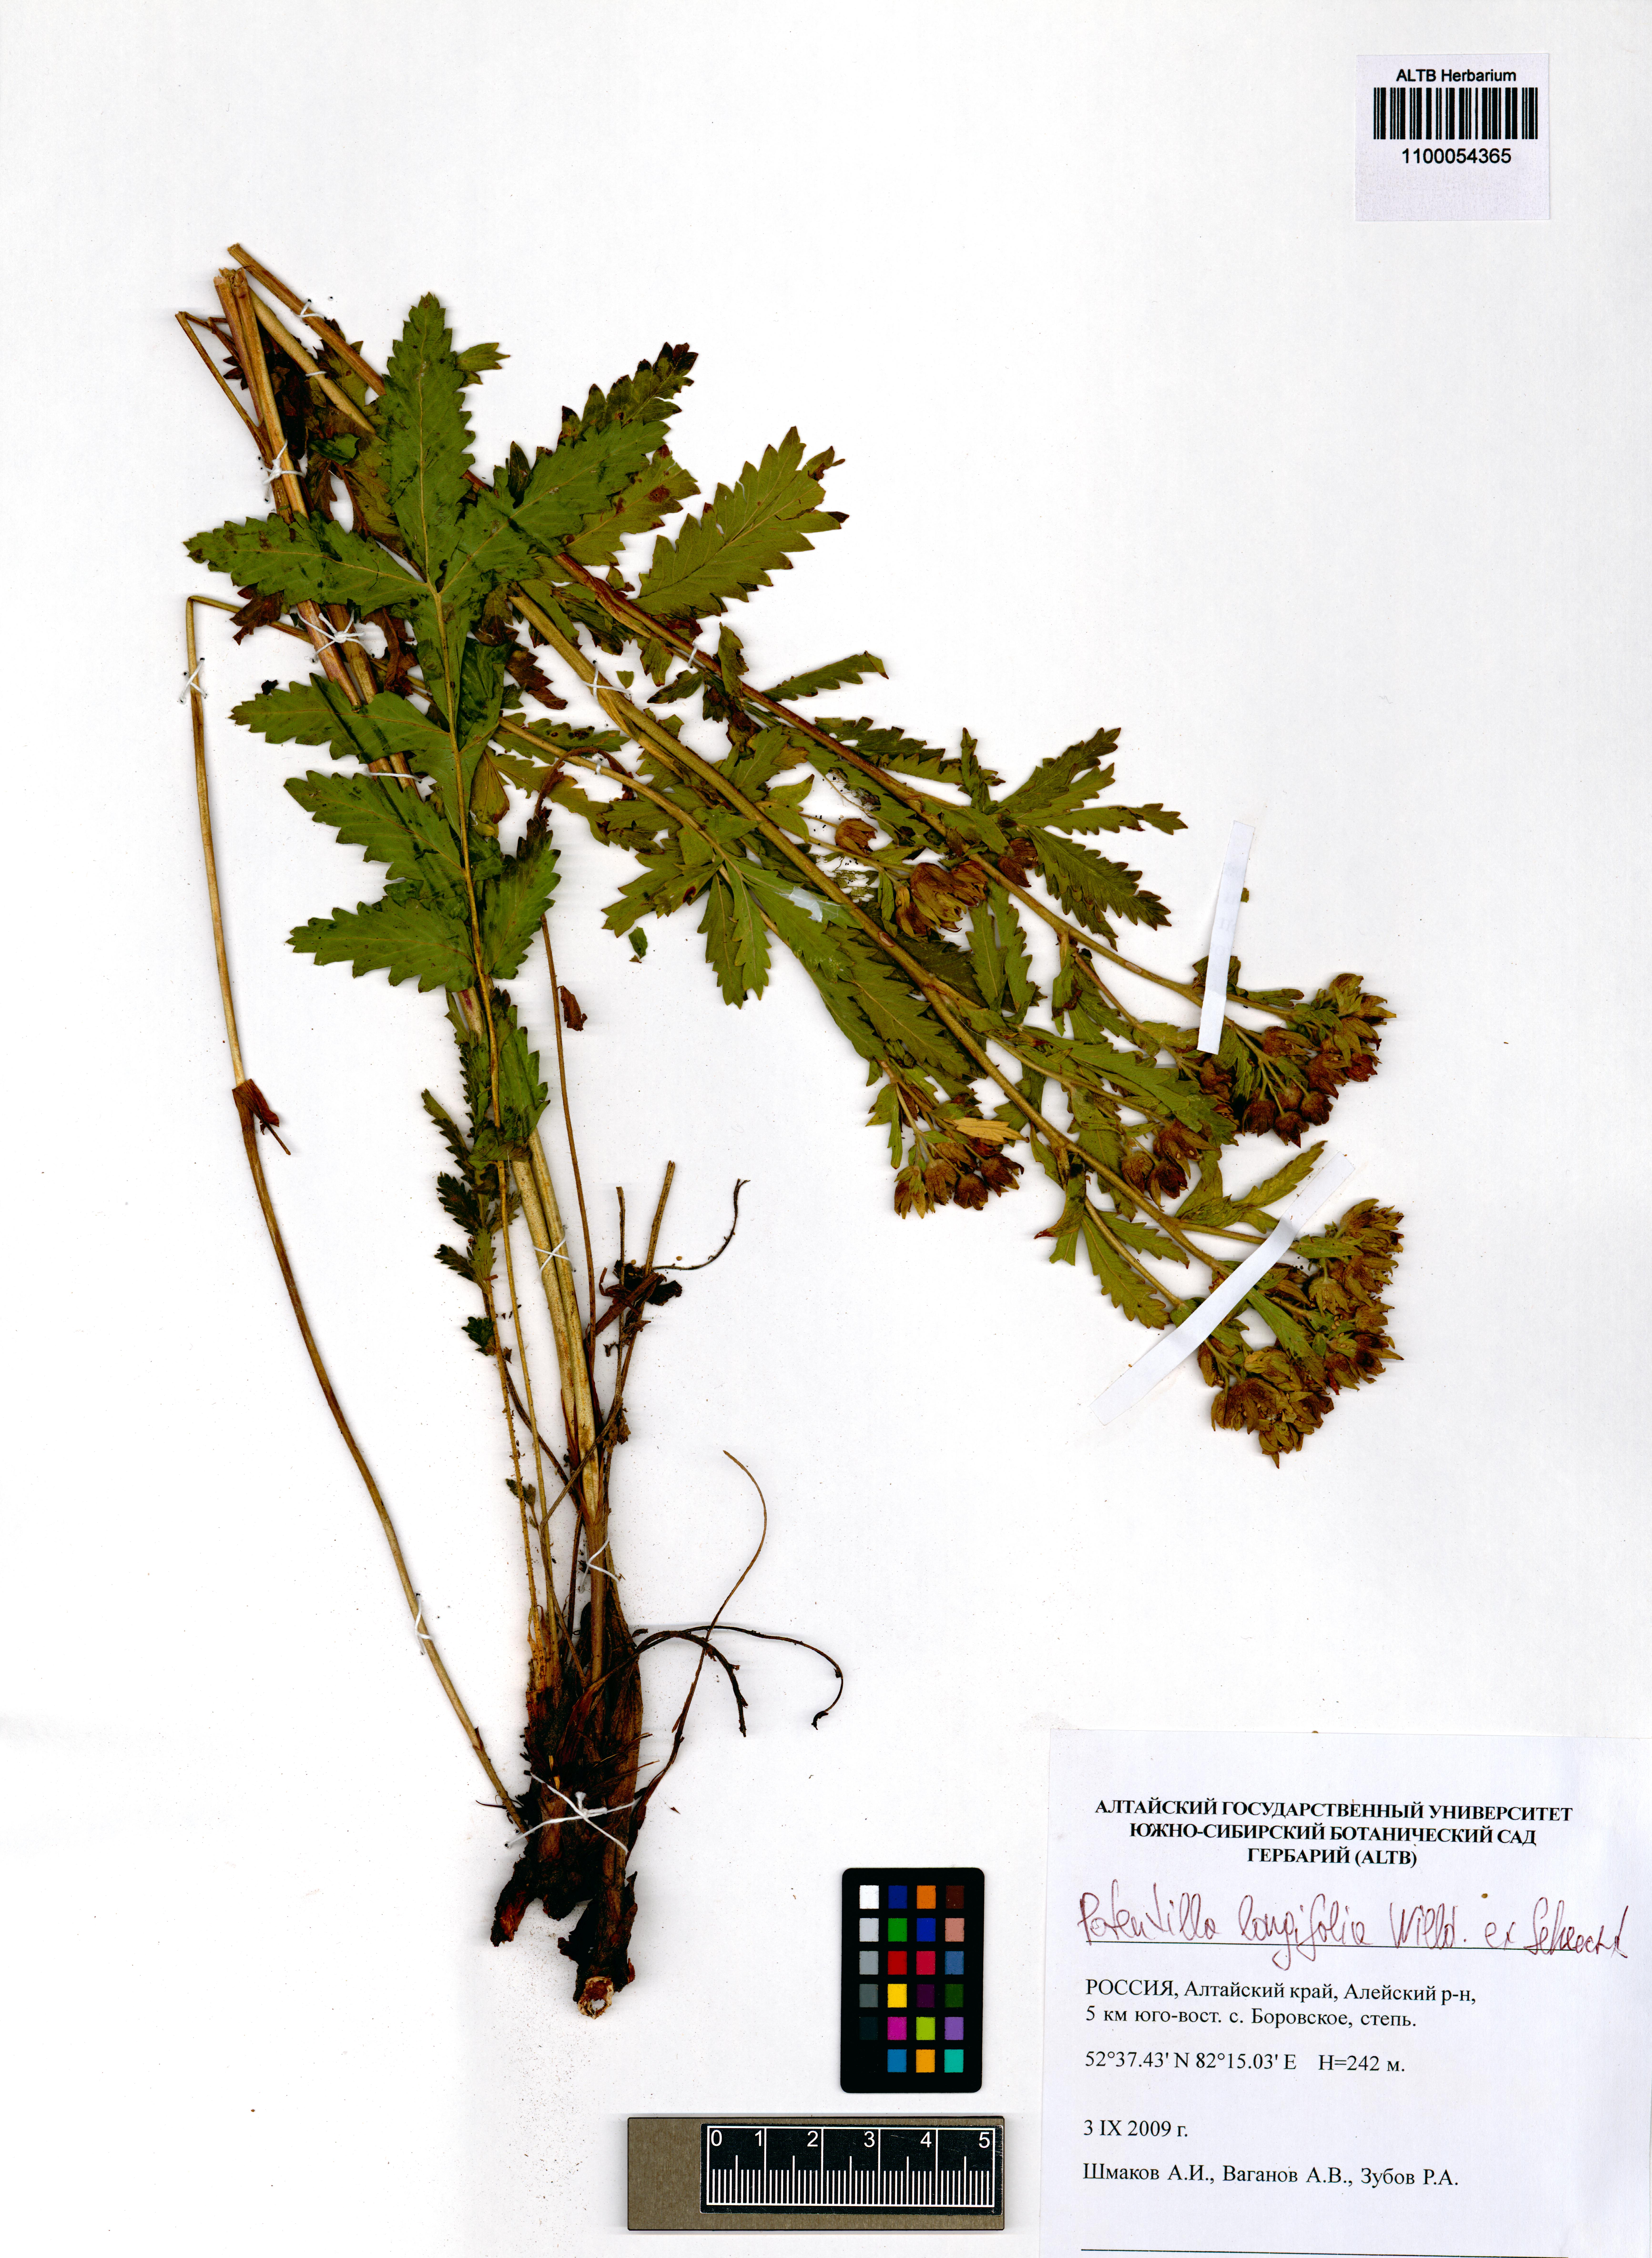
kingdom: Plantae
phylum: Tracheophyta
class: Magnoliopsida
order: Rosales
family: Rosaceae
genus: Potentilla
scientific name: Potentilla longifolia
